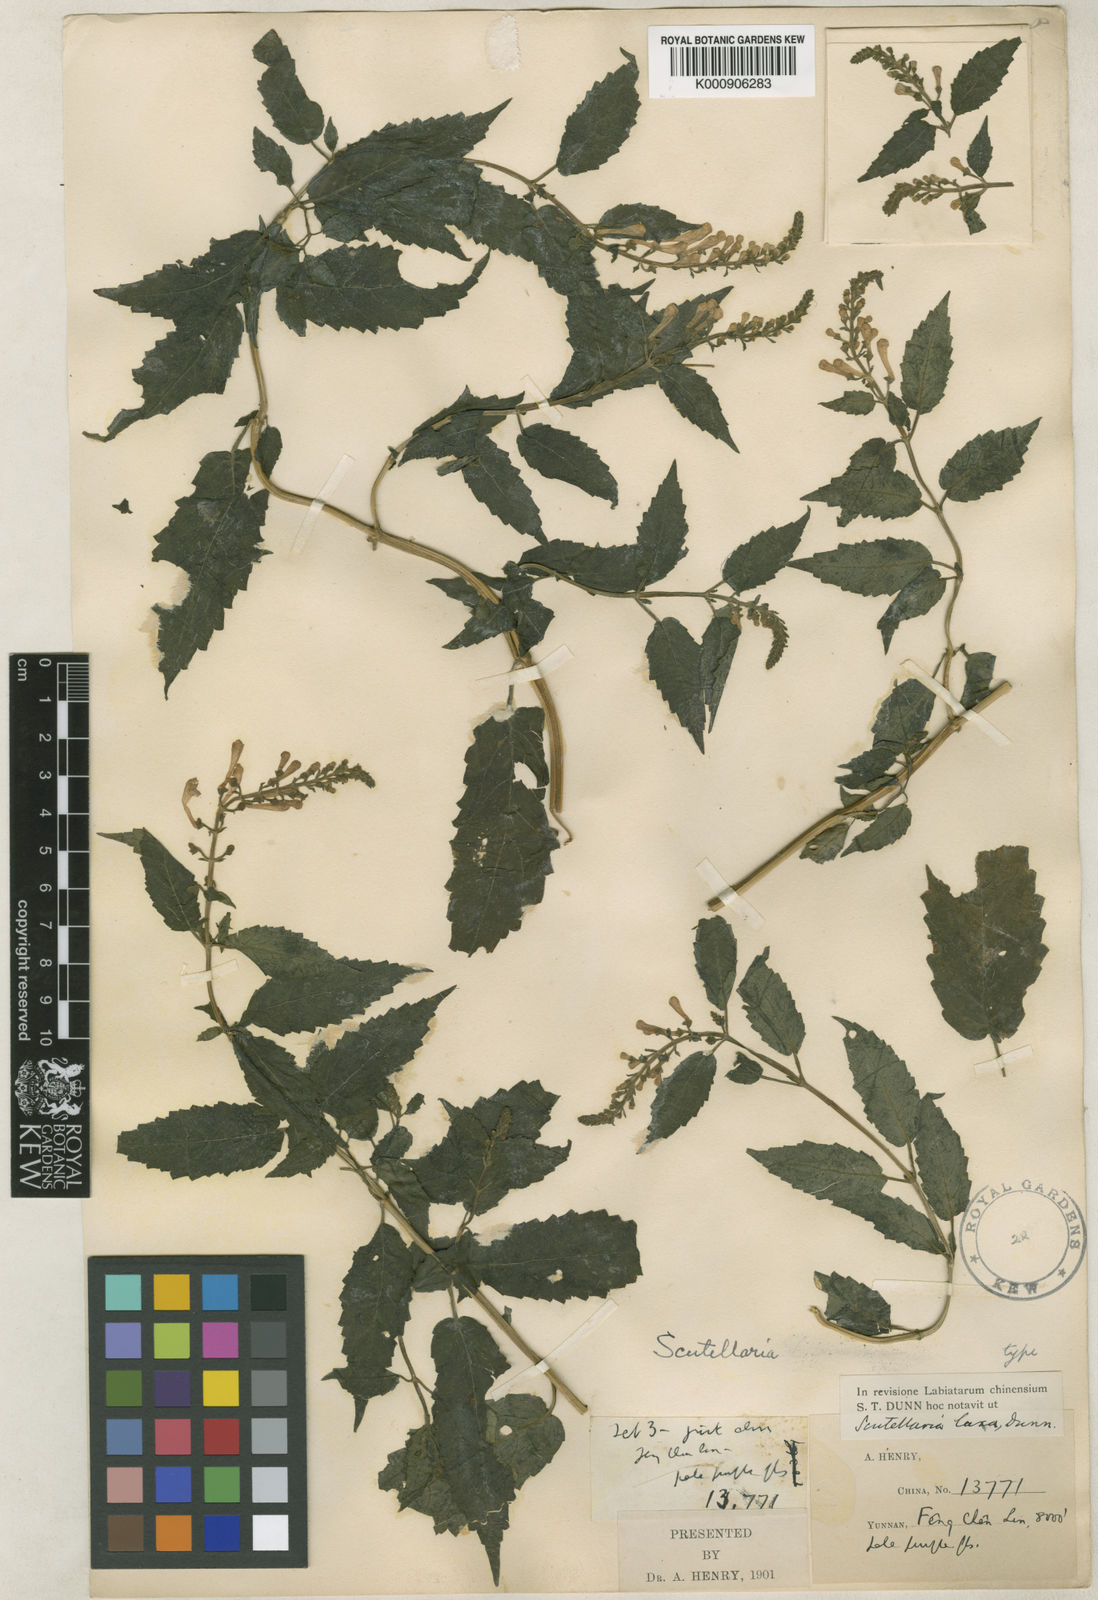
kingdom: Plantae
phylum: Tracheophyta
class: Magnoliopsida
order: Lamiales
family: Lamiaceae
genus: Scutellaria
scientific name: Scutellaria laxa
